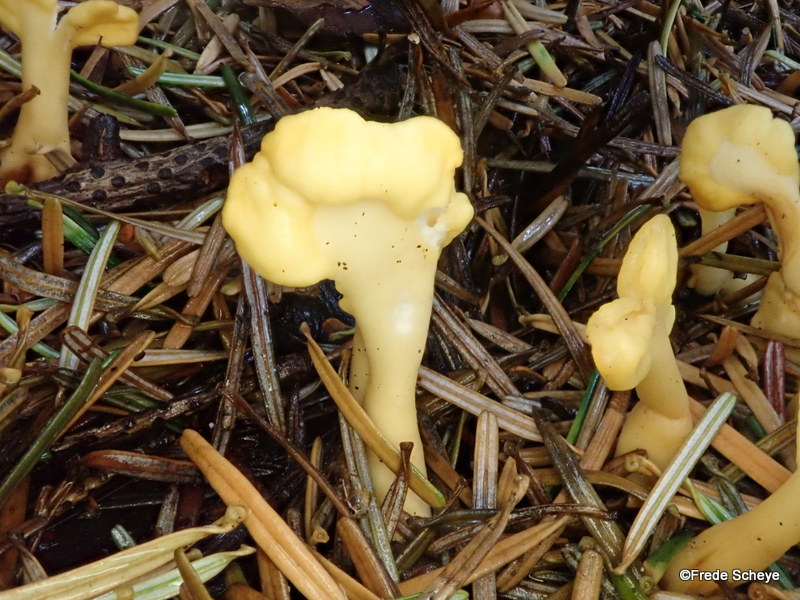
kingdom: Fungi
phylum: Ascomycota
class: Leotiomycetes
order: Rhytismatales
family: Cudoniaceae
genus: Spathularia
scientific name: Spathularia flavida
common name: gul spatelsvamp
